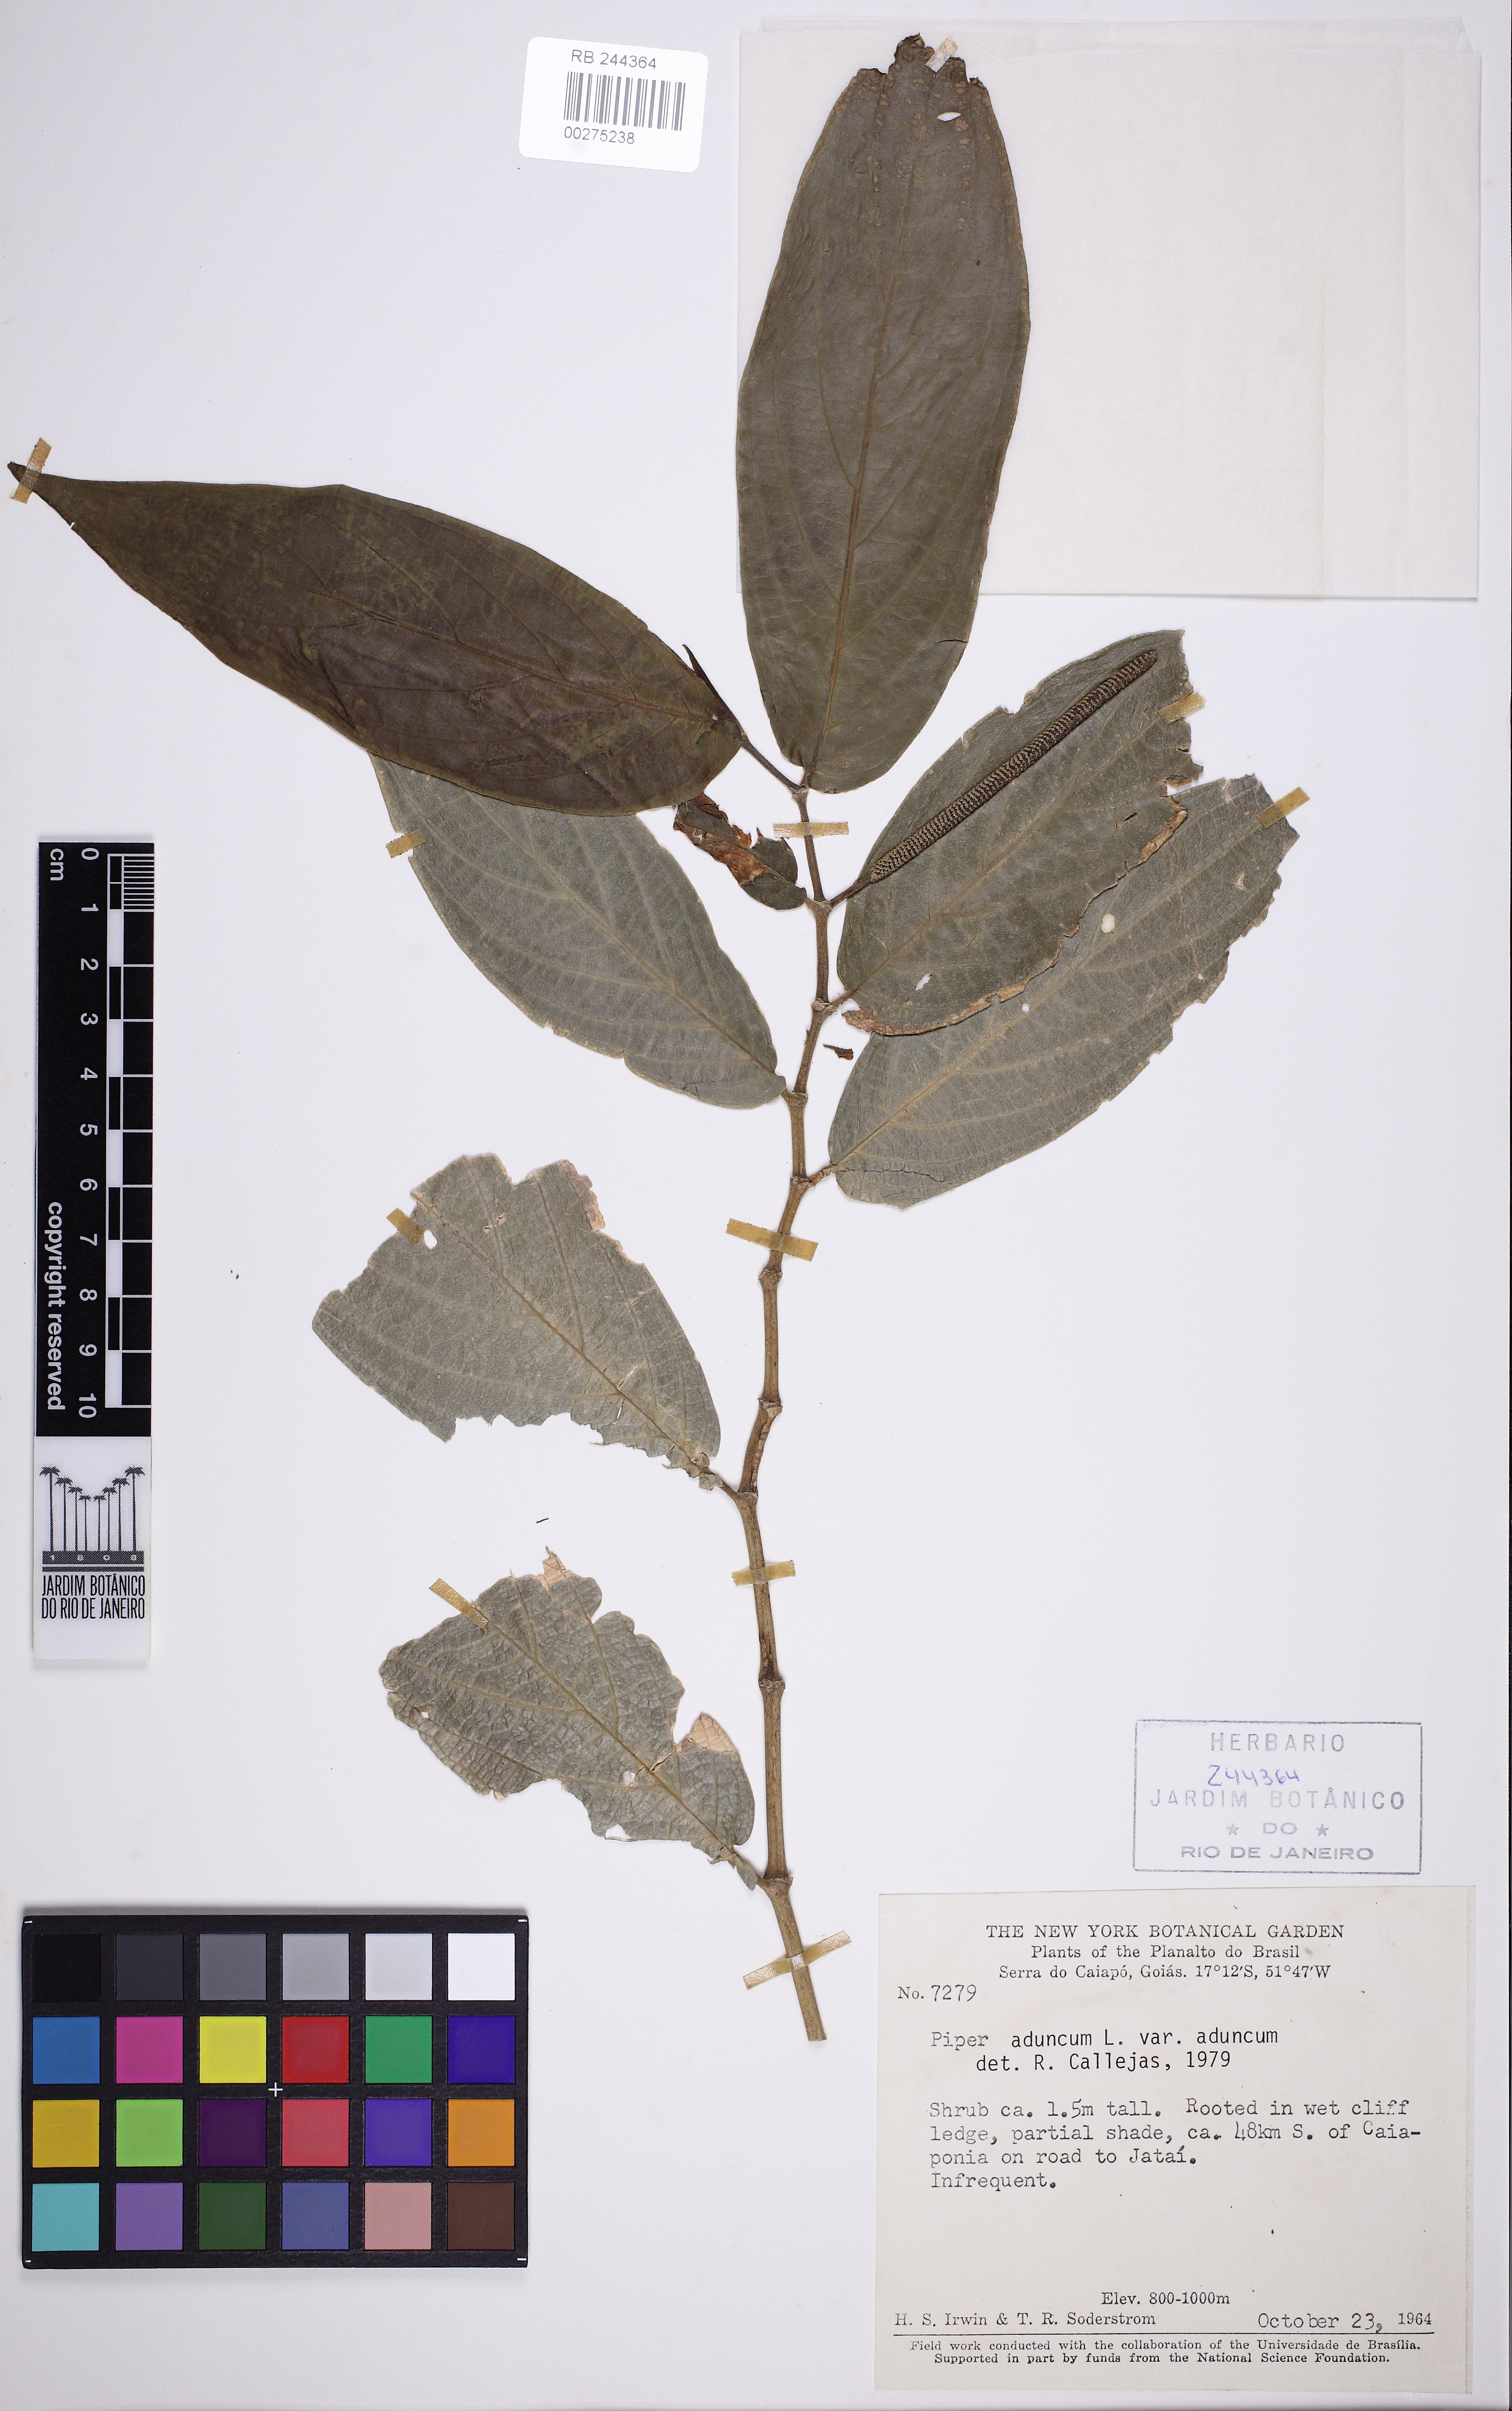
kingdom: Plantae
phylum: Tracheophyta
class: Magnoliopsida
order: Piperales
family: Piperaceae
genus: Piper
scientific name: Piper aduncum
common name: Spiked pepper
